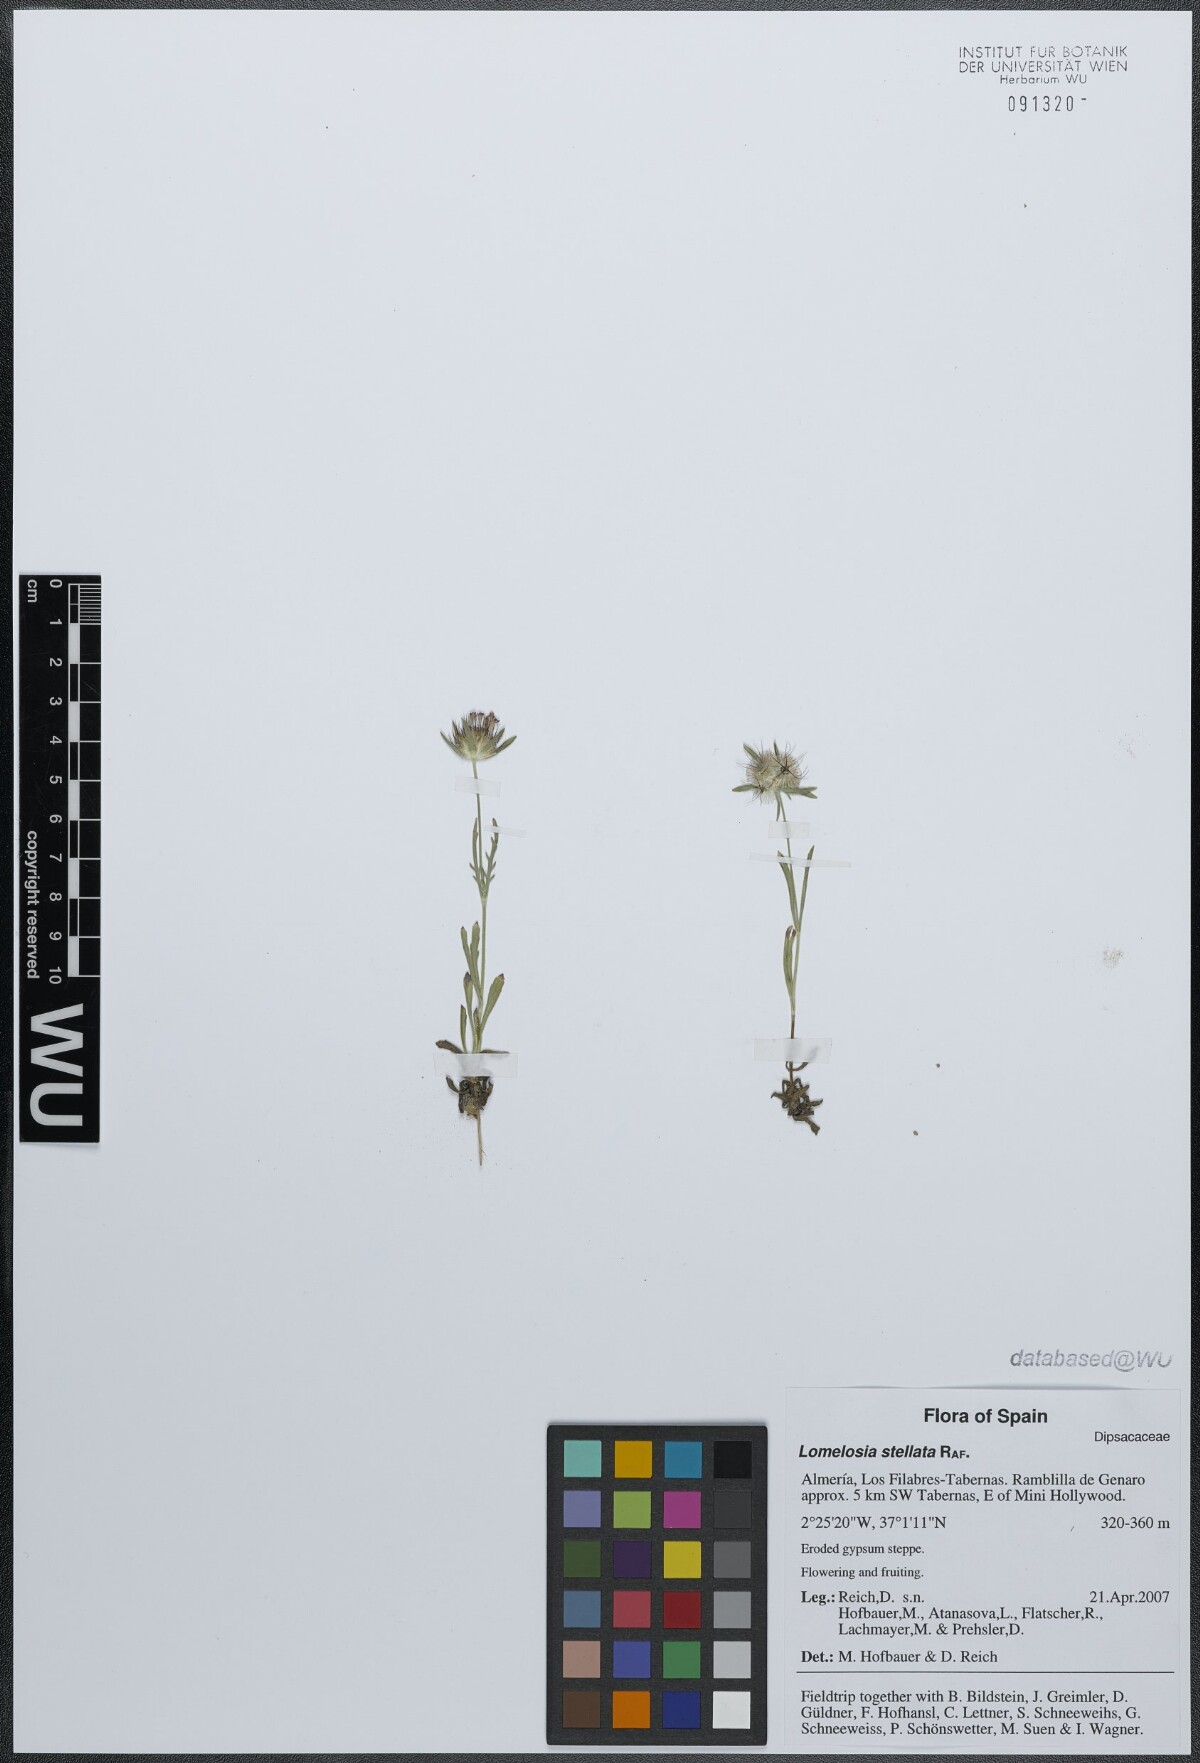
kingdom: Plantae
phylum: Tracheophyta
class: Magnoliopsida
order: Dipsacales
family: Caprifoliaceae
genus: Lomelosia
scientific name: Lomelosia stellata
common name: Teasel
